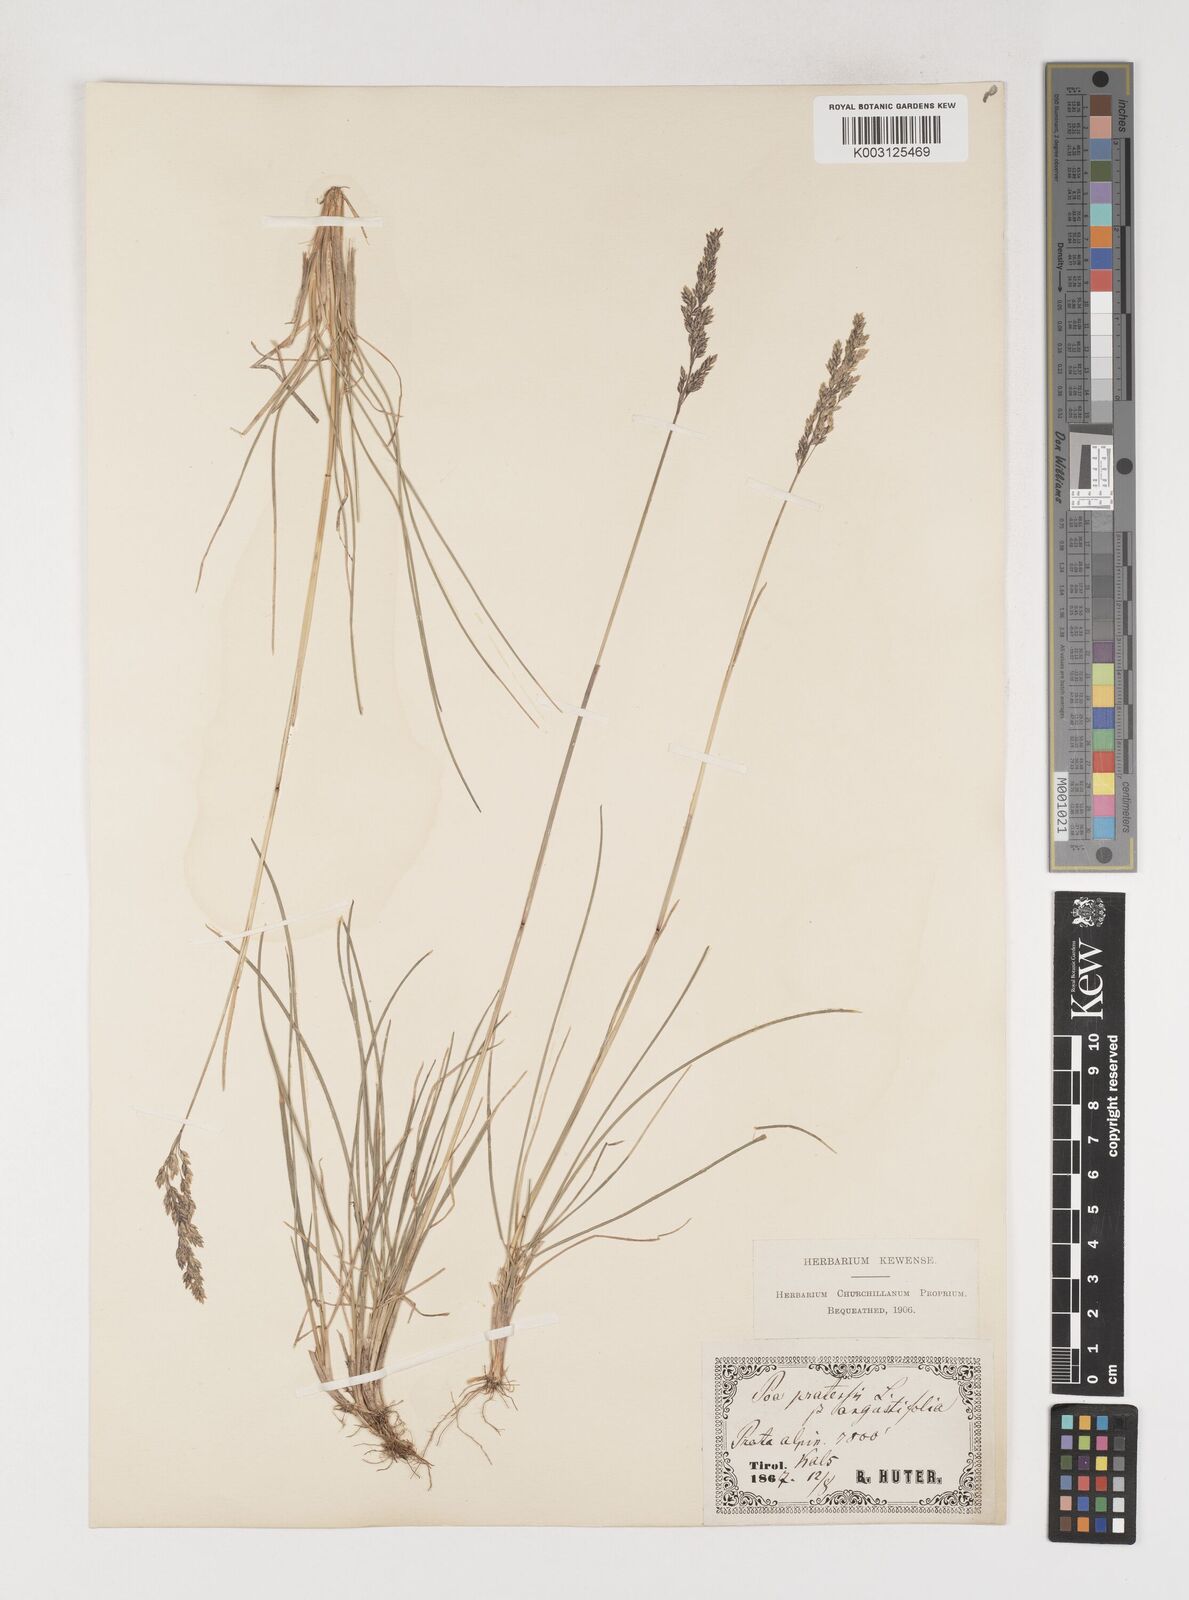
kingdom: Plantae
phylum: Tracheophyta
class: Liliopsida
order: Poales
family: Poaceae
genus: Poa
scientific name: Poa angustifolia
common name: Narrow-leaved meadow-grass
